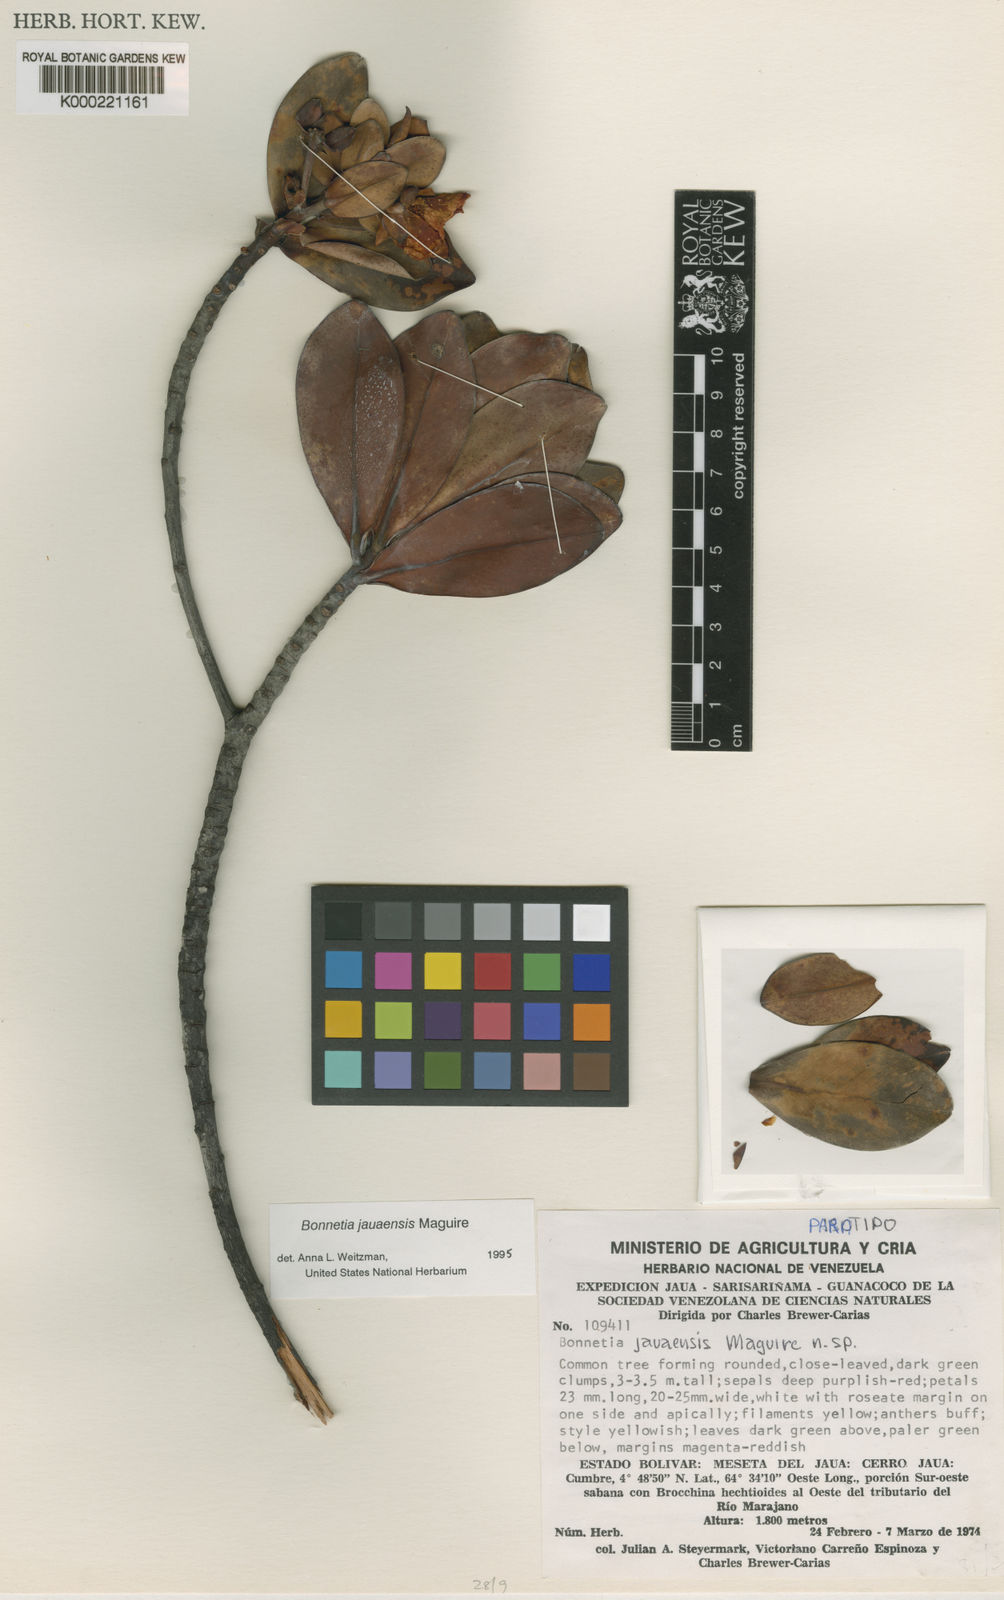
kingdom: Plantae
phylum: Tracheophyta
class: Magnoliopsida
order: Malpighiales
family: Bonnetiaceae
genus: Bonnetia
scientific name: Bonnetia jauaensis
